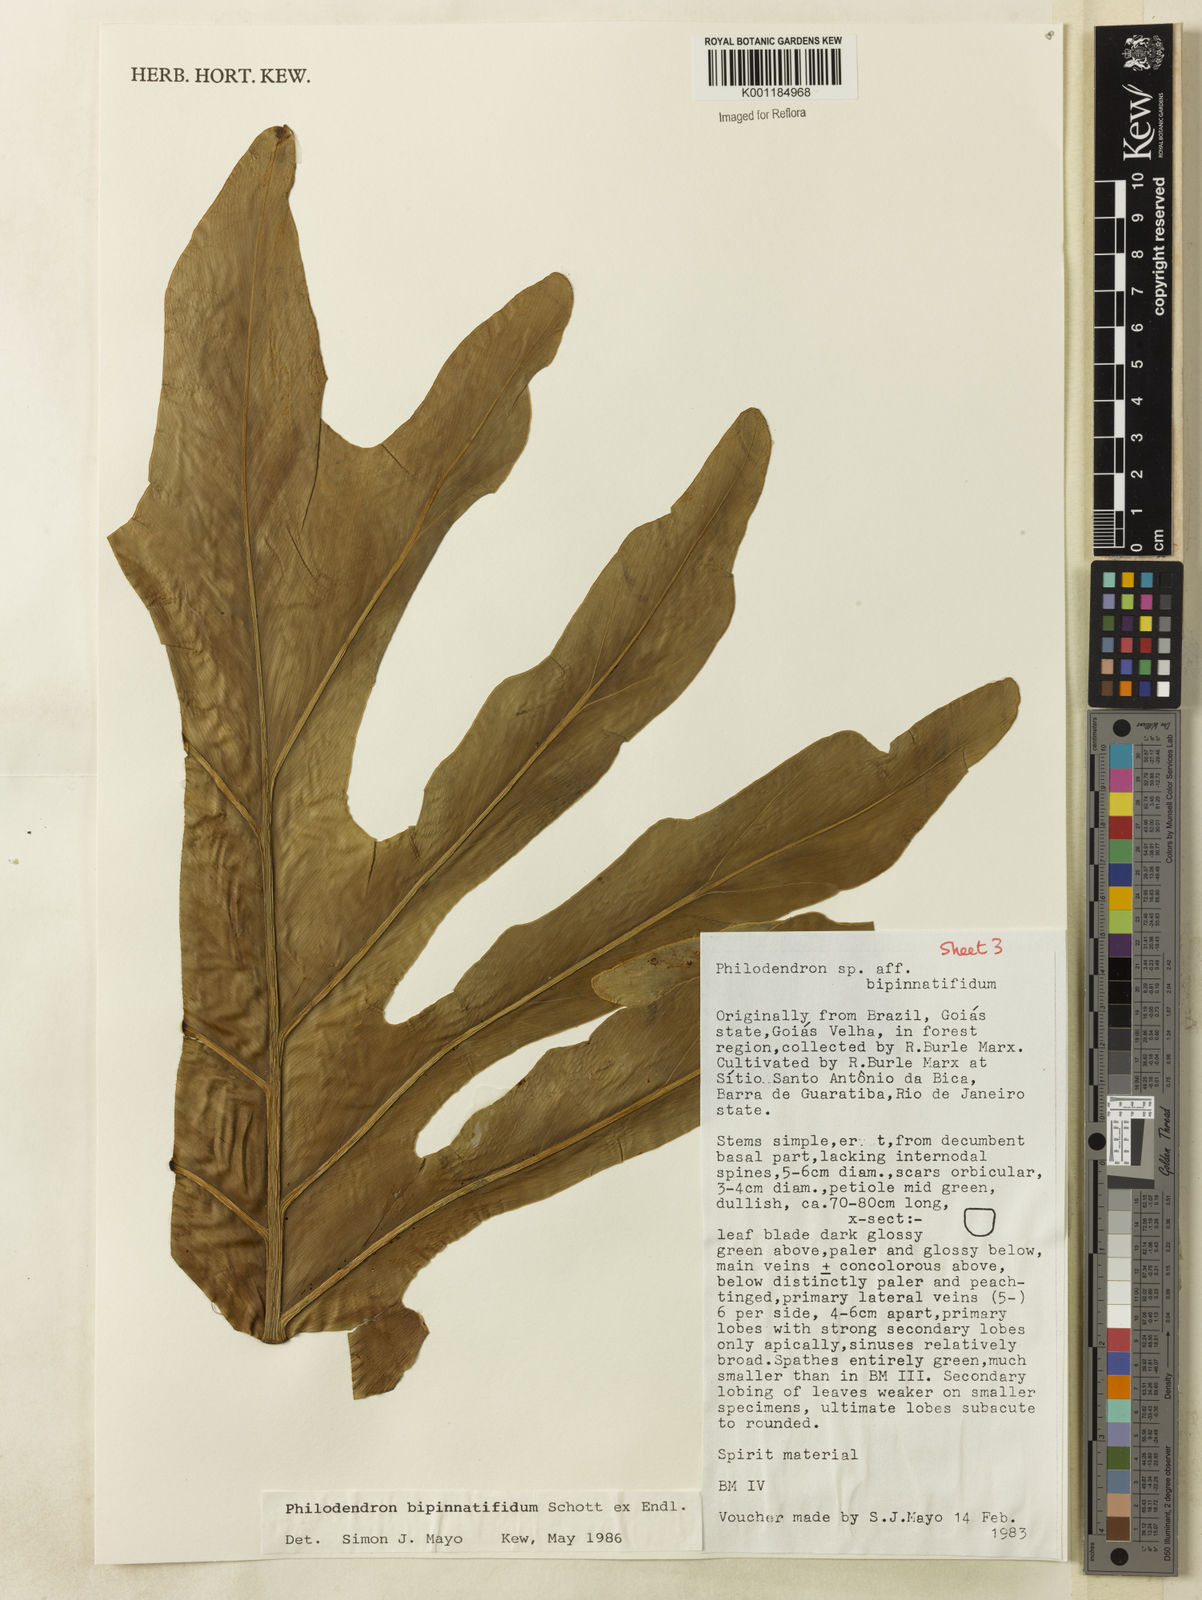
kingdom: Plantae
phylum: Tracheophyta
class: Liliopsida
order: Alismatales
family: Araceae
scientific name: Araceae
